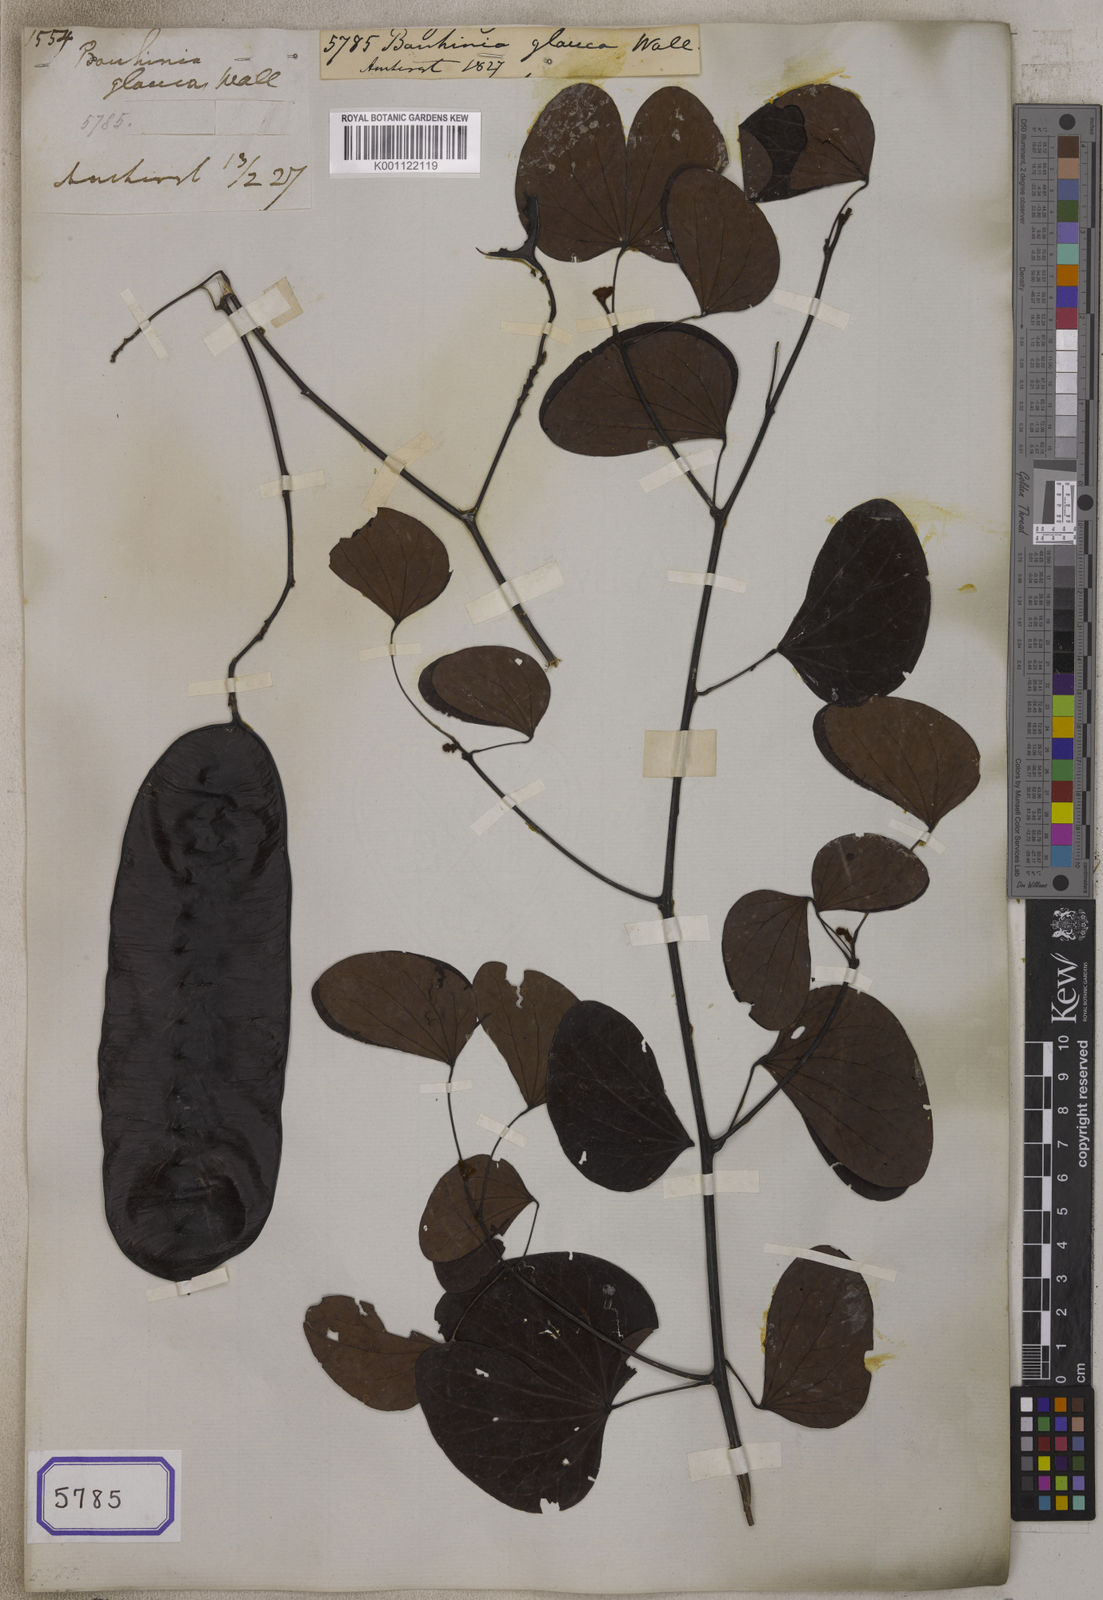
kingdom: Plantae
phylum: Tracheophyta
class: Magnoliopsida
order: Fabales
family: Fabaceae
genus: Bauhinia
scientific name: Bauhinia
